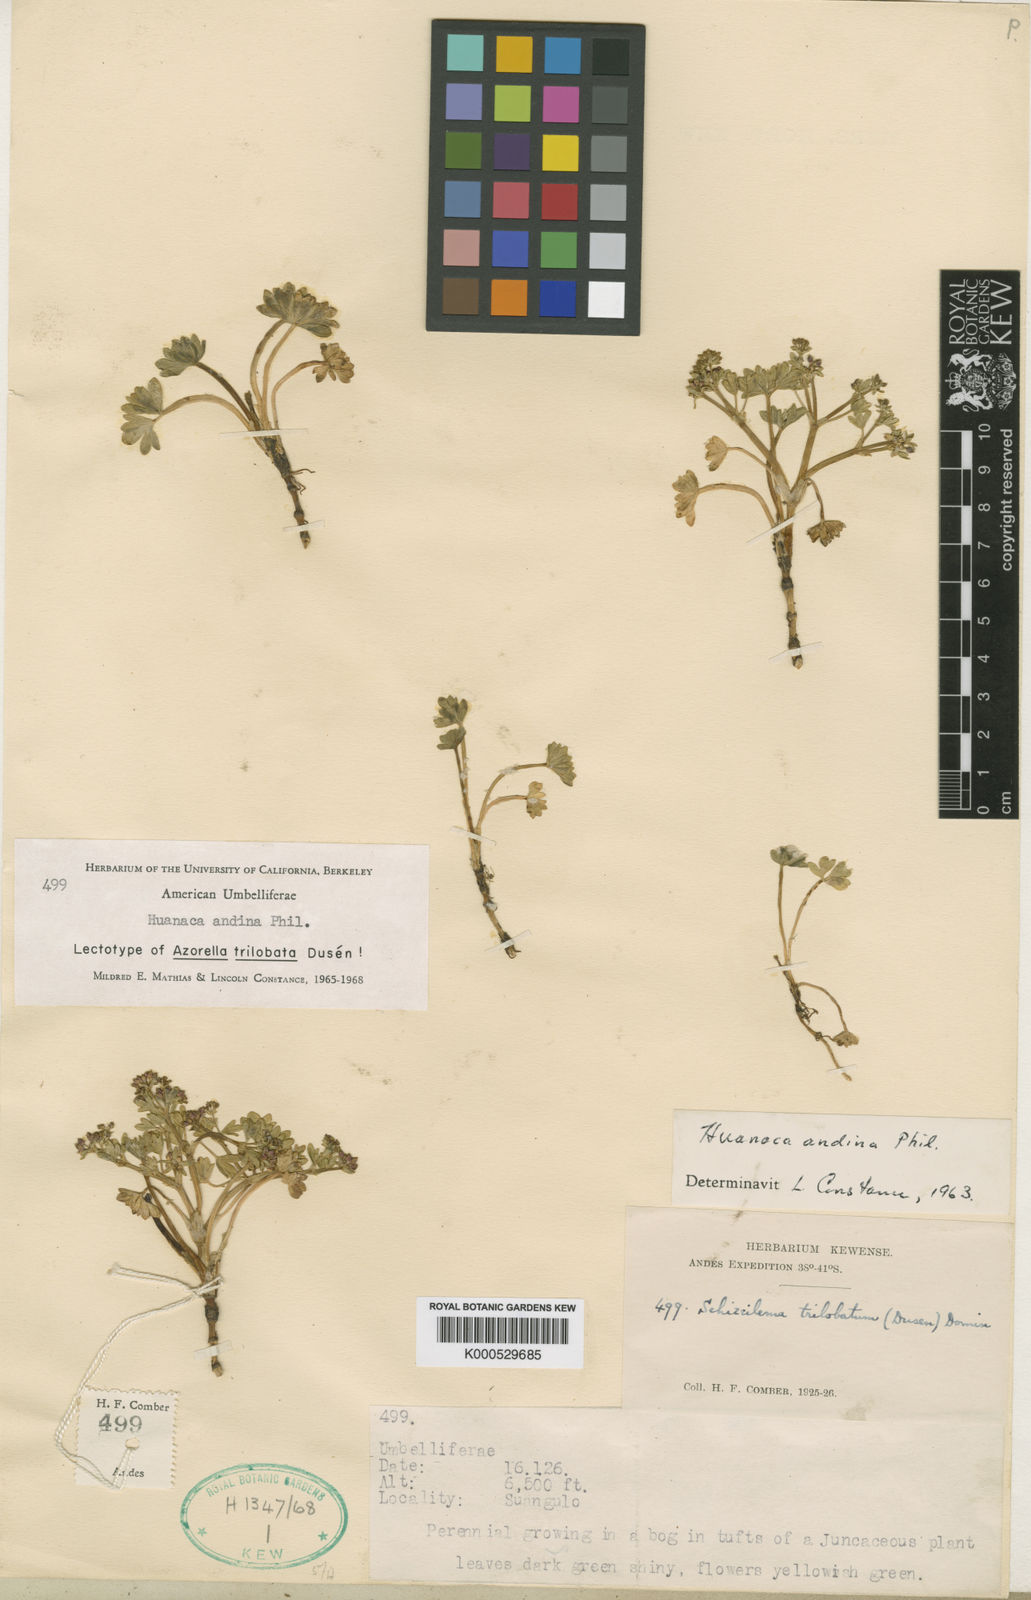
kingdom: Plantae
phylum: Tracheophyta
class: Magnoliopsida
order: Apiales
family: Apiaceae
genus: Azorella
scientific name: Azorella andina
